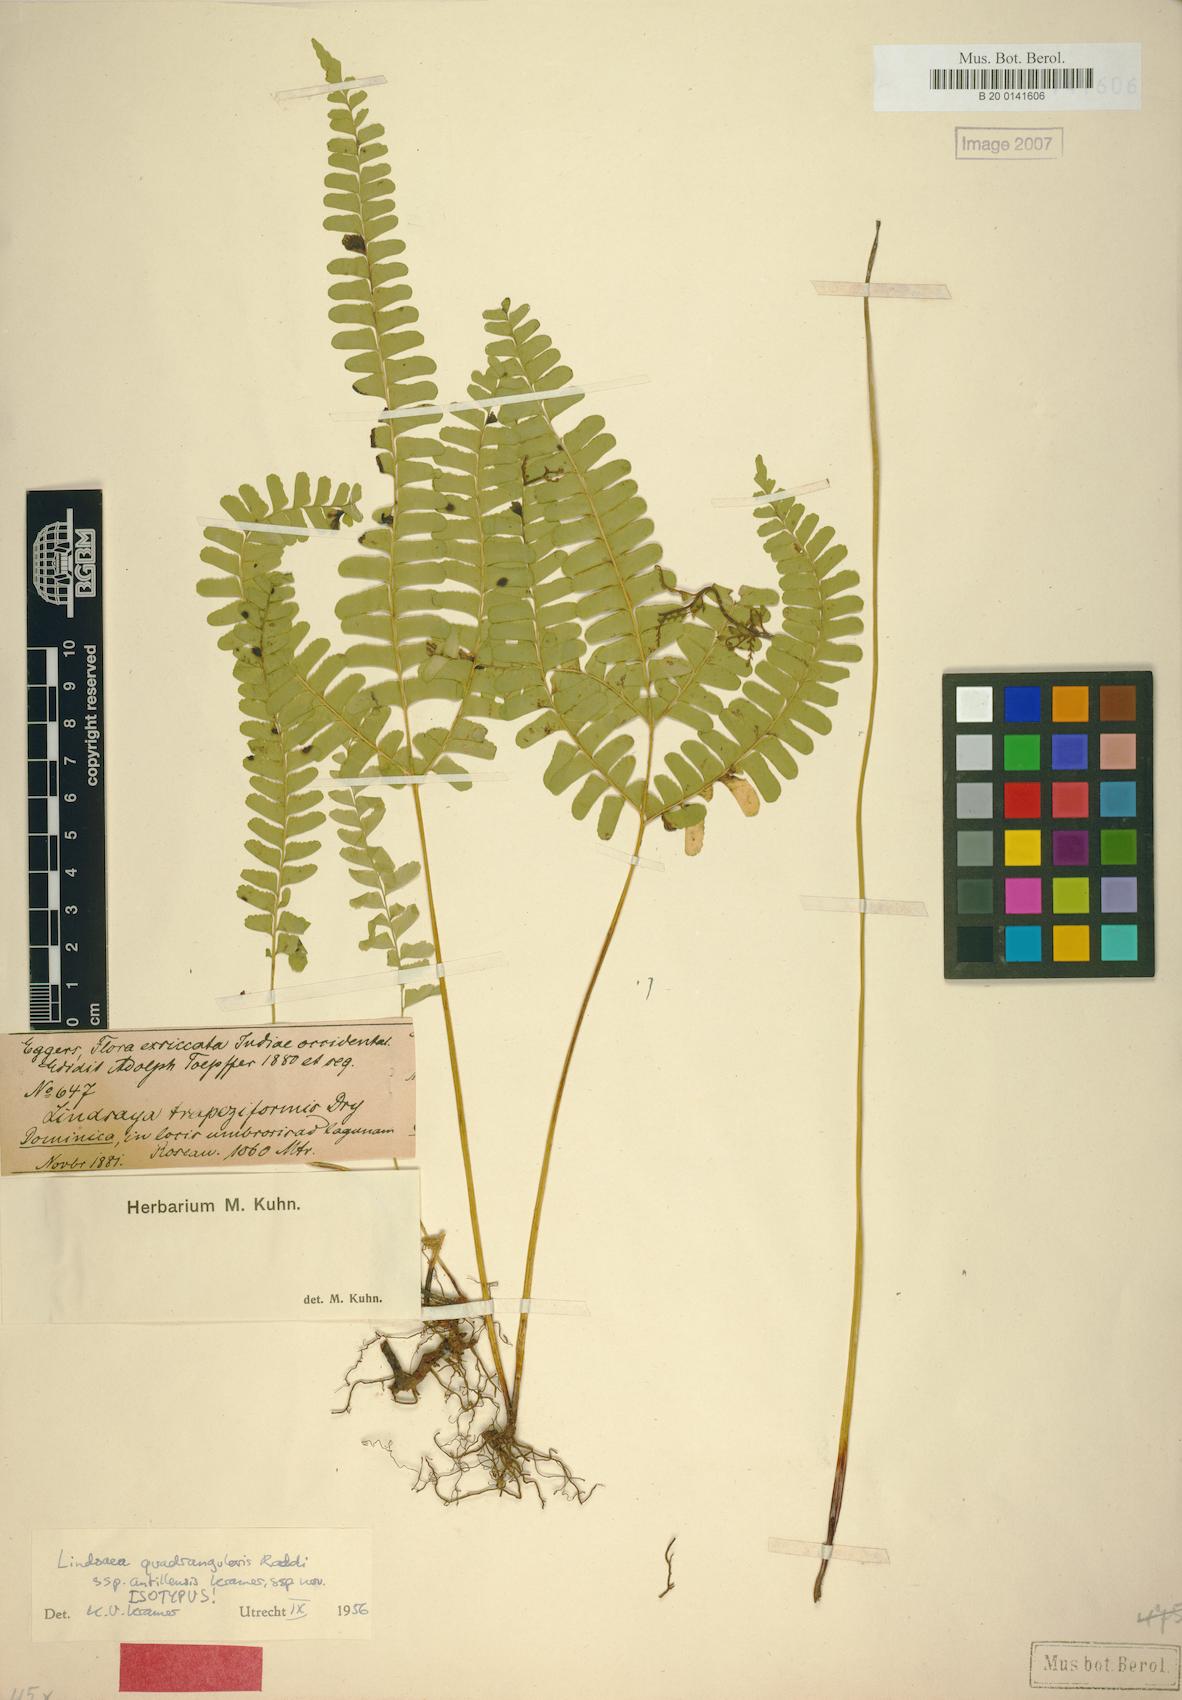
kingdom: Plantae
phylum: Tracheophyta
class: Polypodiopsida
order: Polypodiales
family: Lindsaeaceae
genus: Lindsaea
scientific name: Lindsaea quadrangularis
